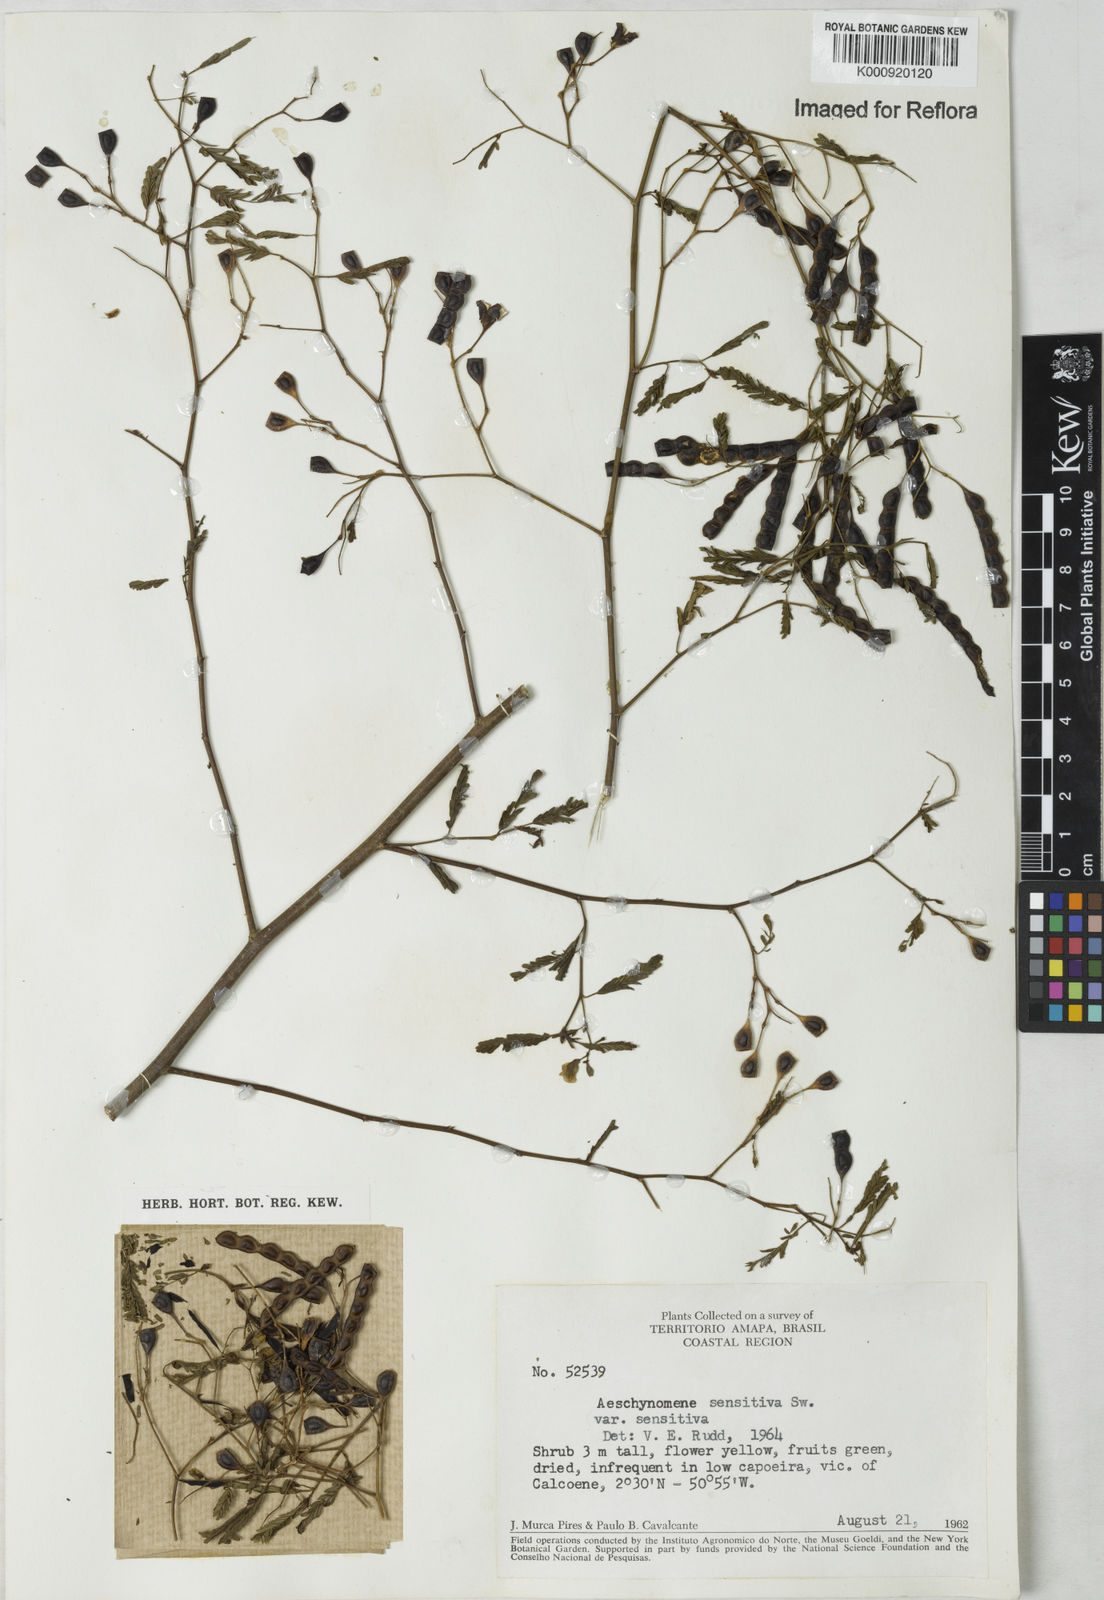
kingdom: Plantae
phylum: Tracheophyta
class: Magnoliopsida
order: Fabales
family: Fabaceae
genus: Aeschynomene
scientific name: Aeschynomene sensitiva
